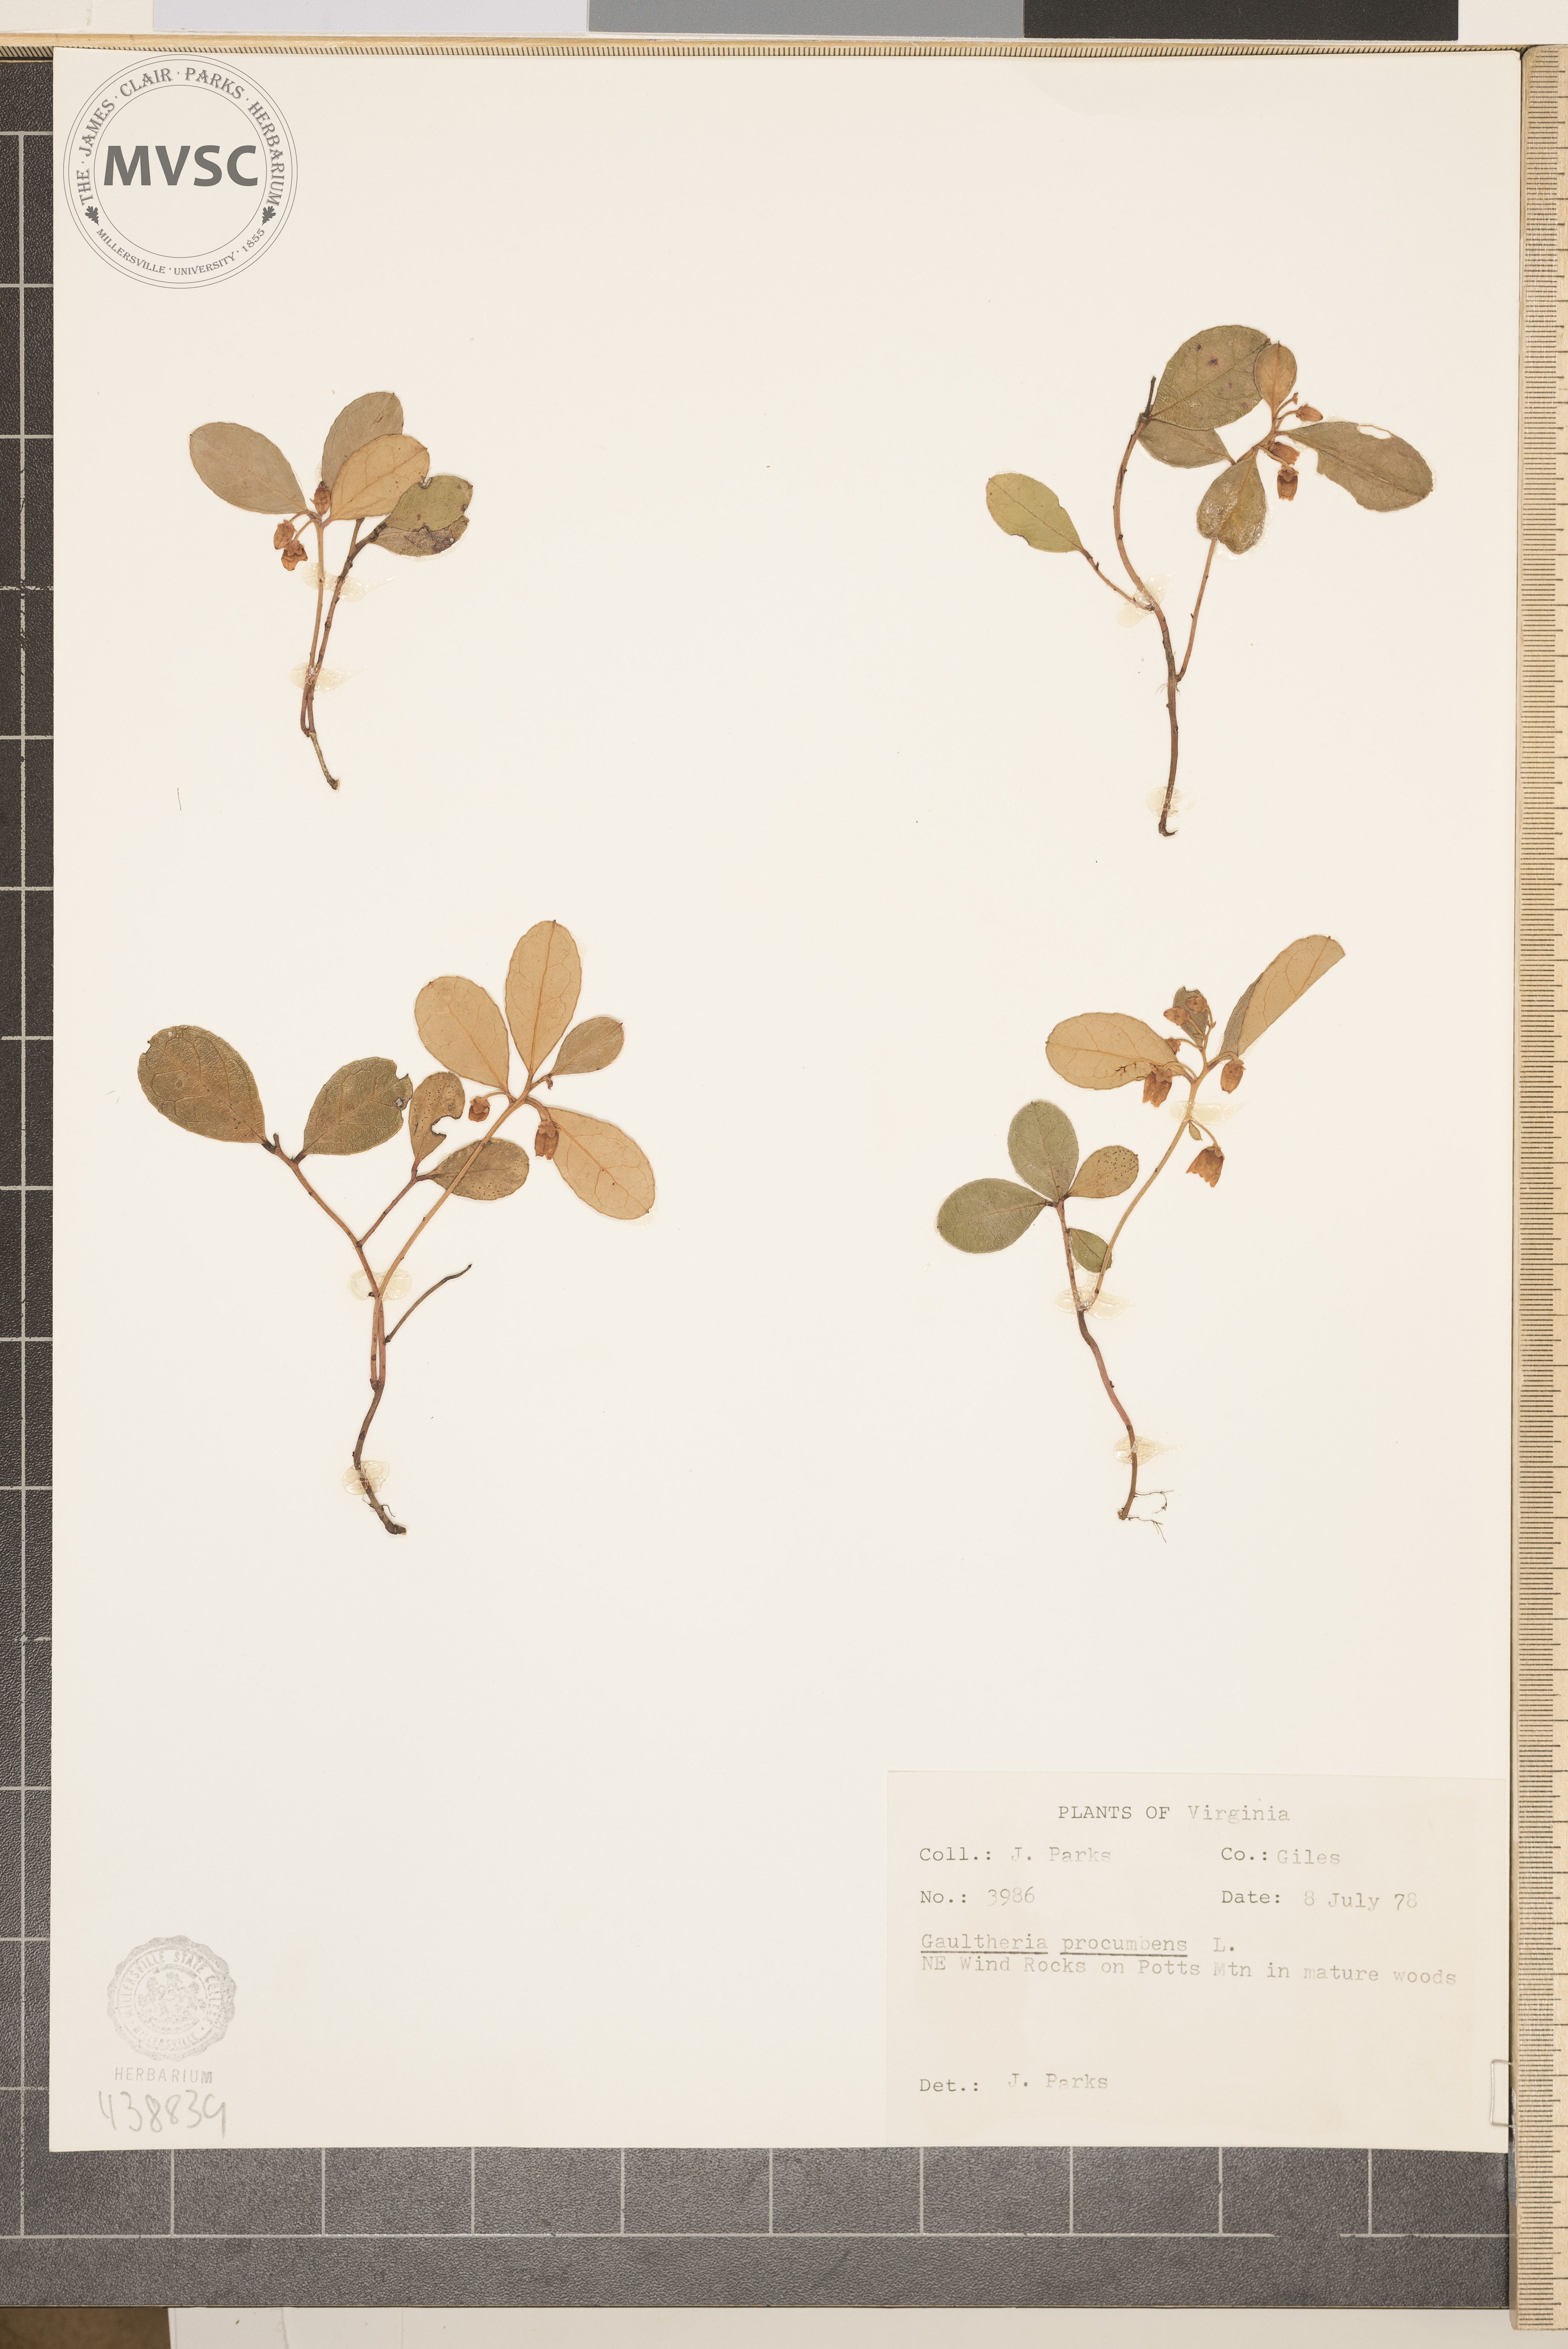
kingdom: Plantae
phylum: Tracheophyta
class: Magnoliopsida
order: Ericales
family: Ericaceae
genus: Gaultheria
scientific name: Gaultheria procumbens
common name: Checkerberry
